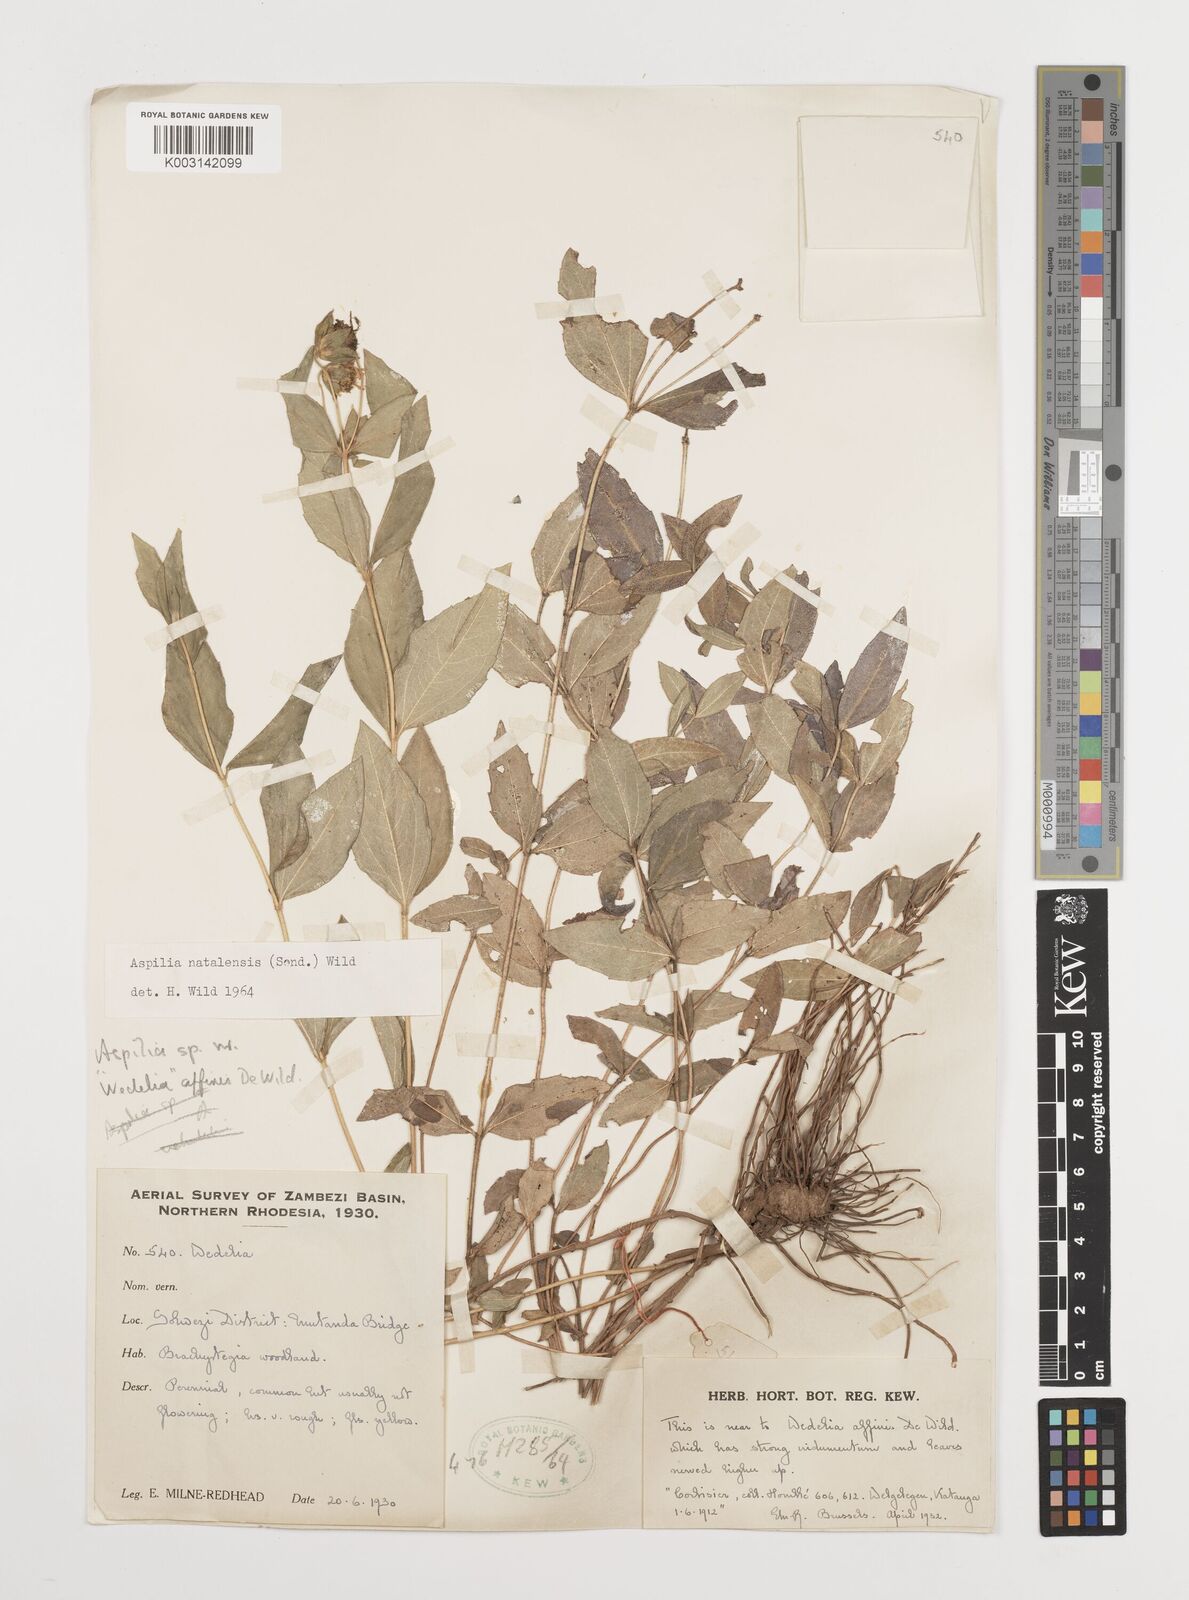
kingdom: Plantae
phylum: Tracheophyta
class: Magnoliopsida
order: Asterales
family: Asteraceae
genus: Aspilia
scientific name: Aspilia angolensis
